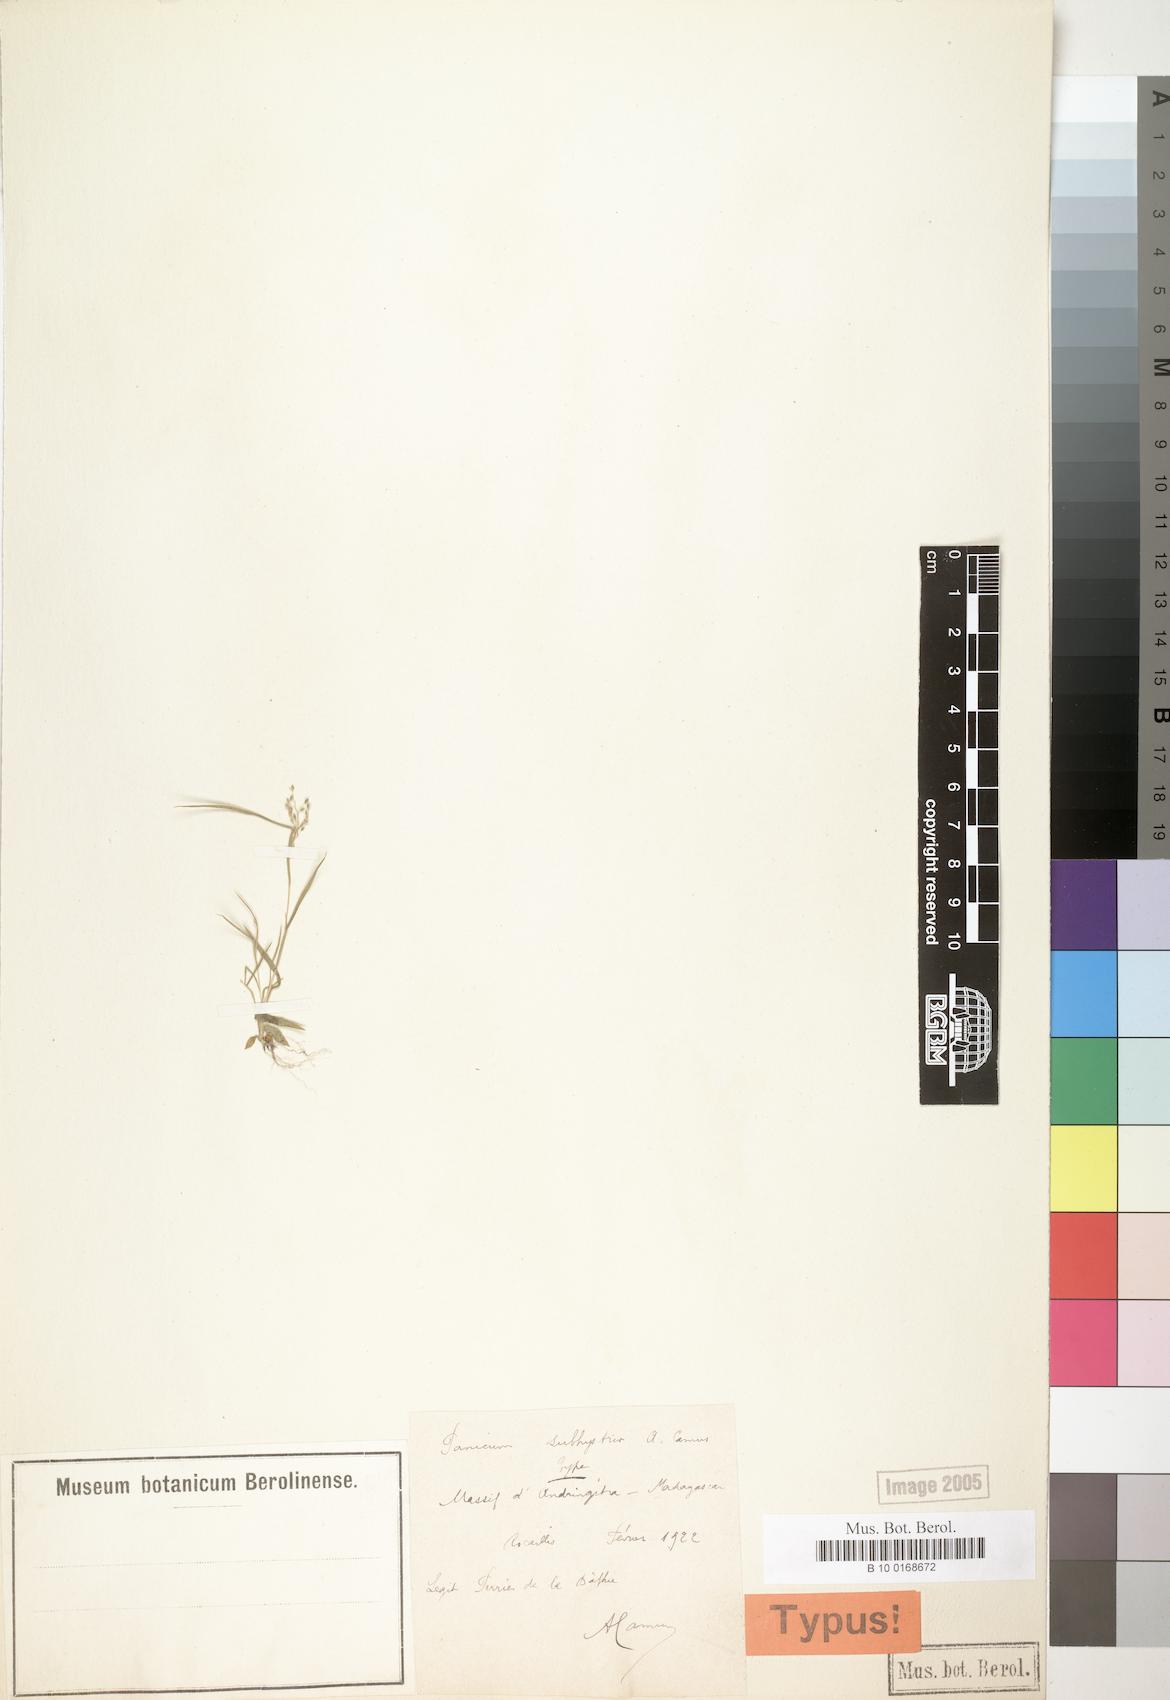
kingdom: Plantae
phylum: Tracheophyta
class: Liliopsida
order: Poales
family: Poaceae
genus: Panicum
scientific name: Panicum subhystrix
